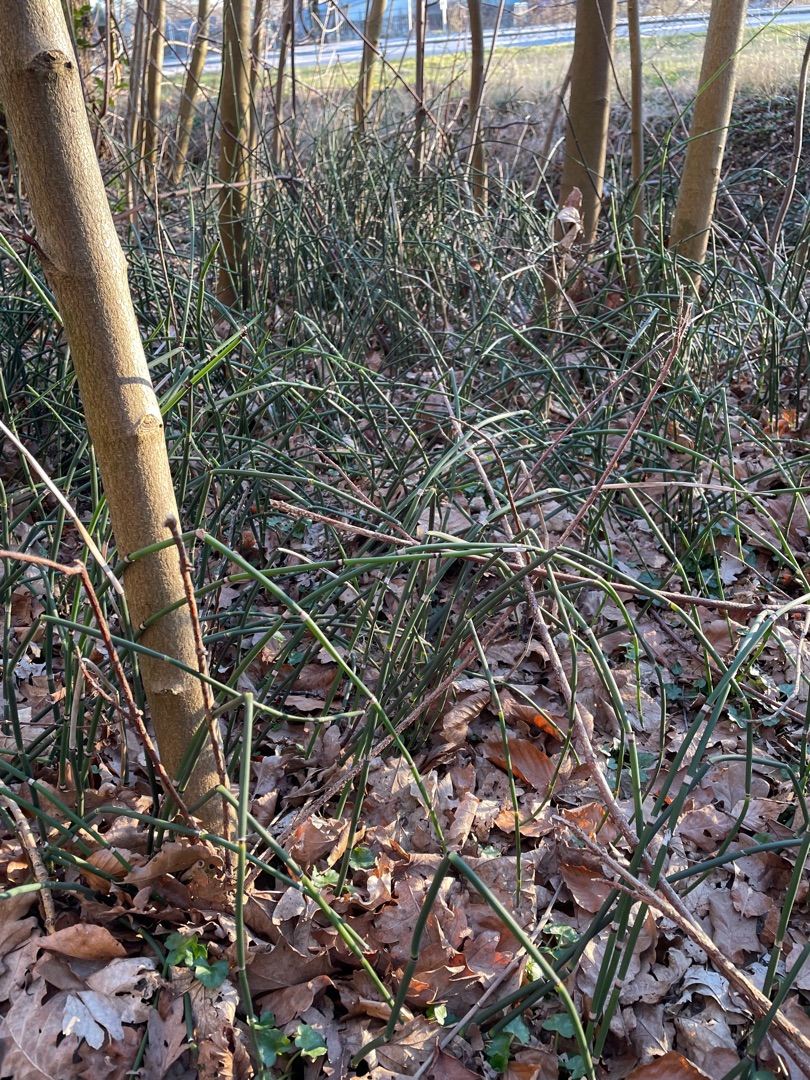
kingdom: Plantae
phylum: Tracheophyta
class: Polypodiopsida
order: Equisetales
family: Equisetaceae
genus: Equisetum
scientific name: Equisetum hyemale
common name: Skavgræs
